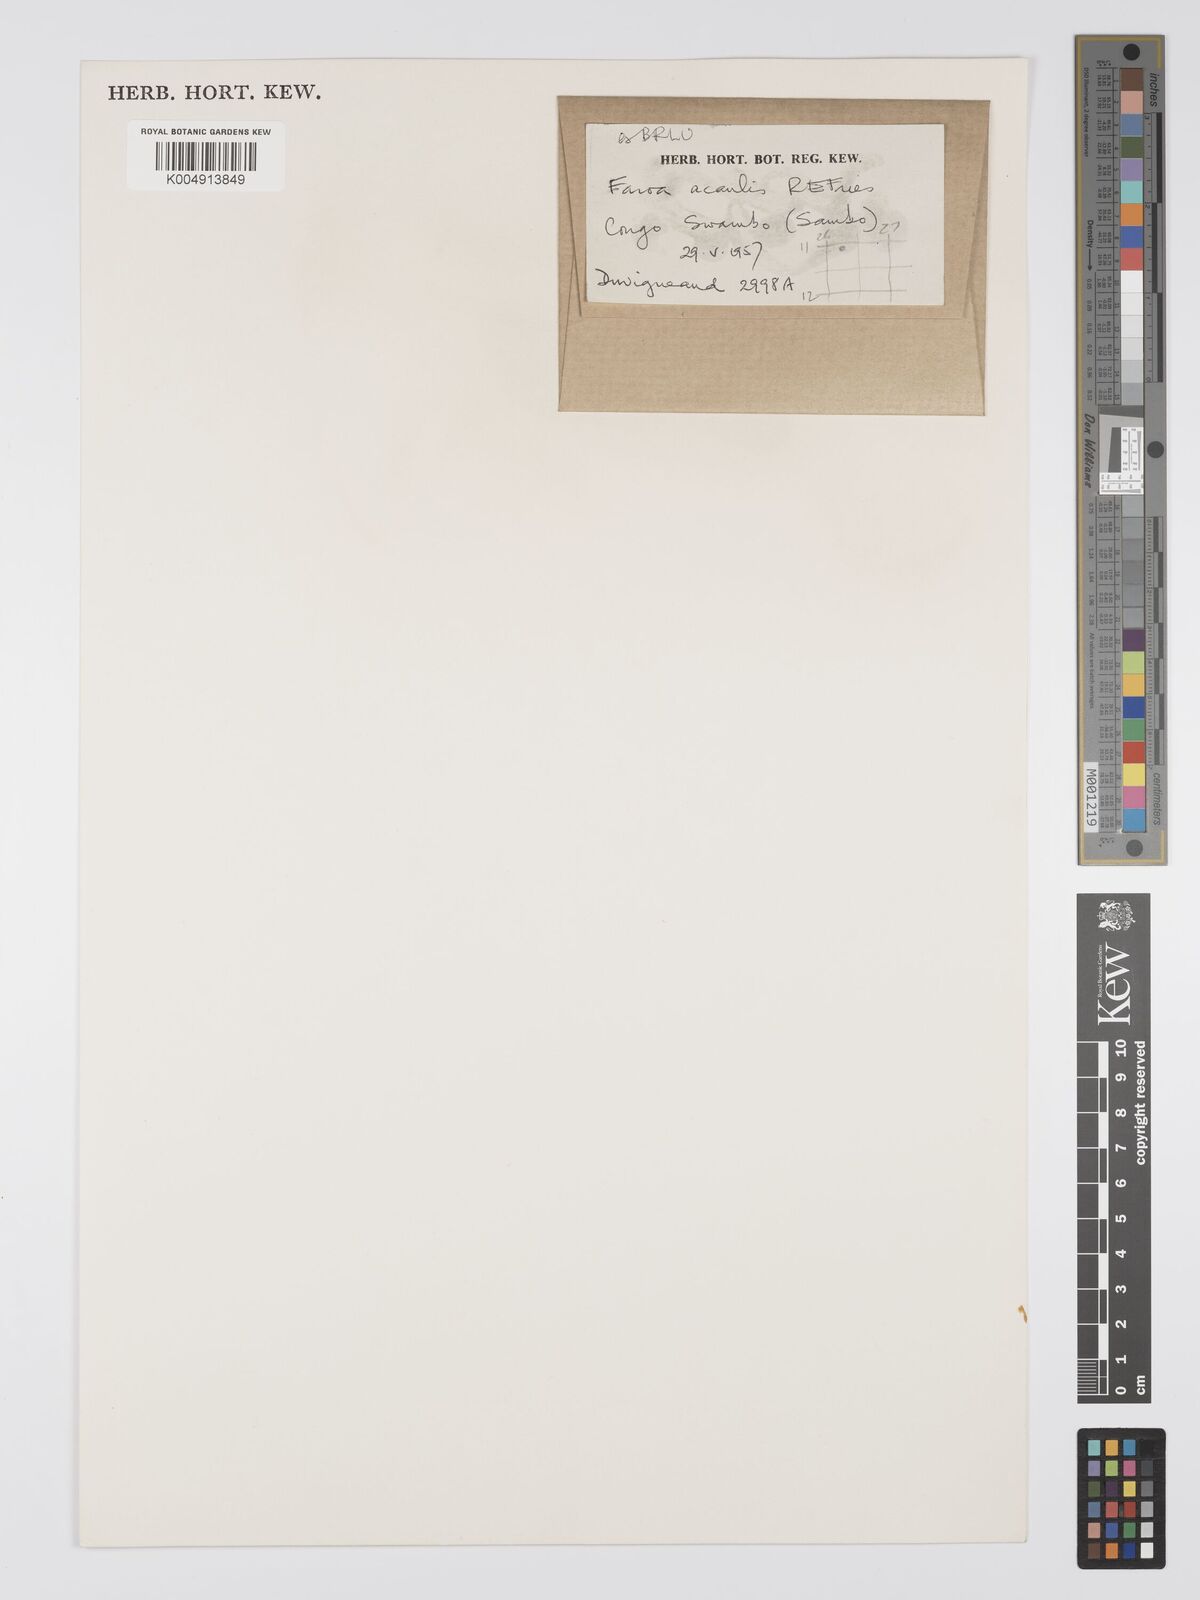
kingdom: Plantae
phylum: Tracheophyta
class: Magnoliopsida
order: Gentianales
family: Gentianaceae
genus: Faroa
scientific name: Faroa acaulis
